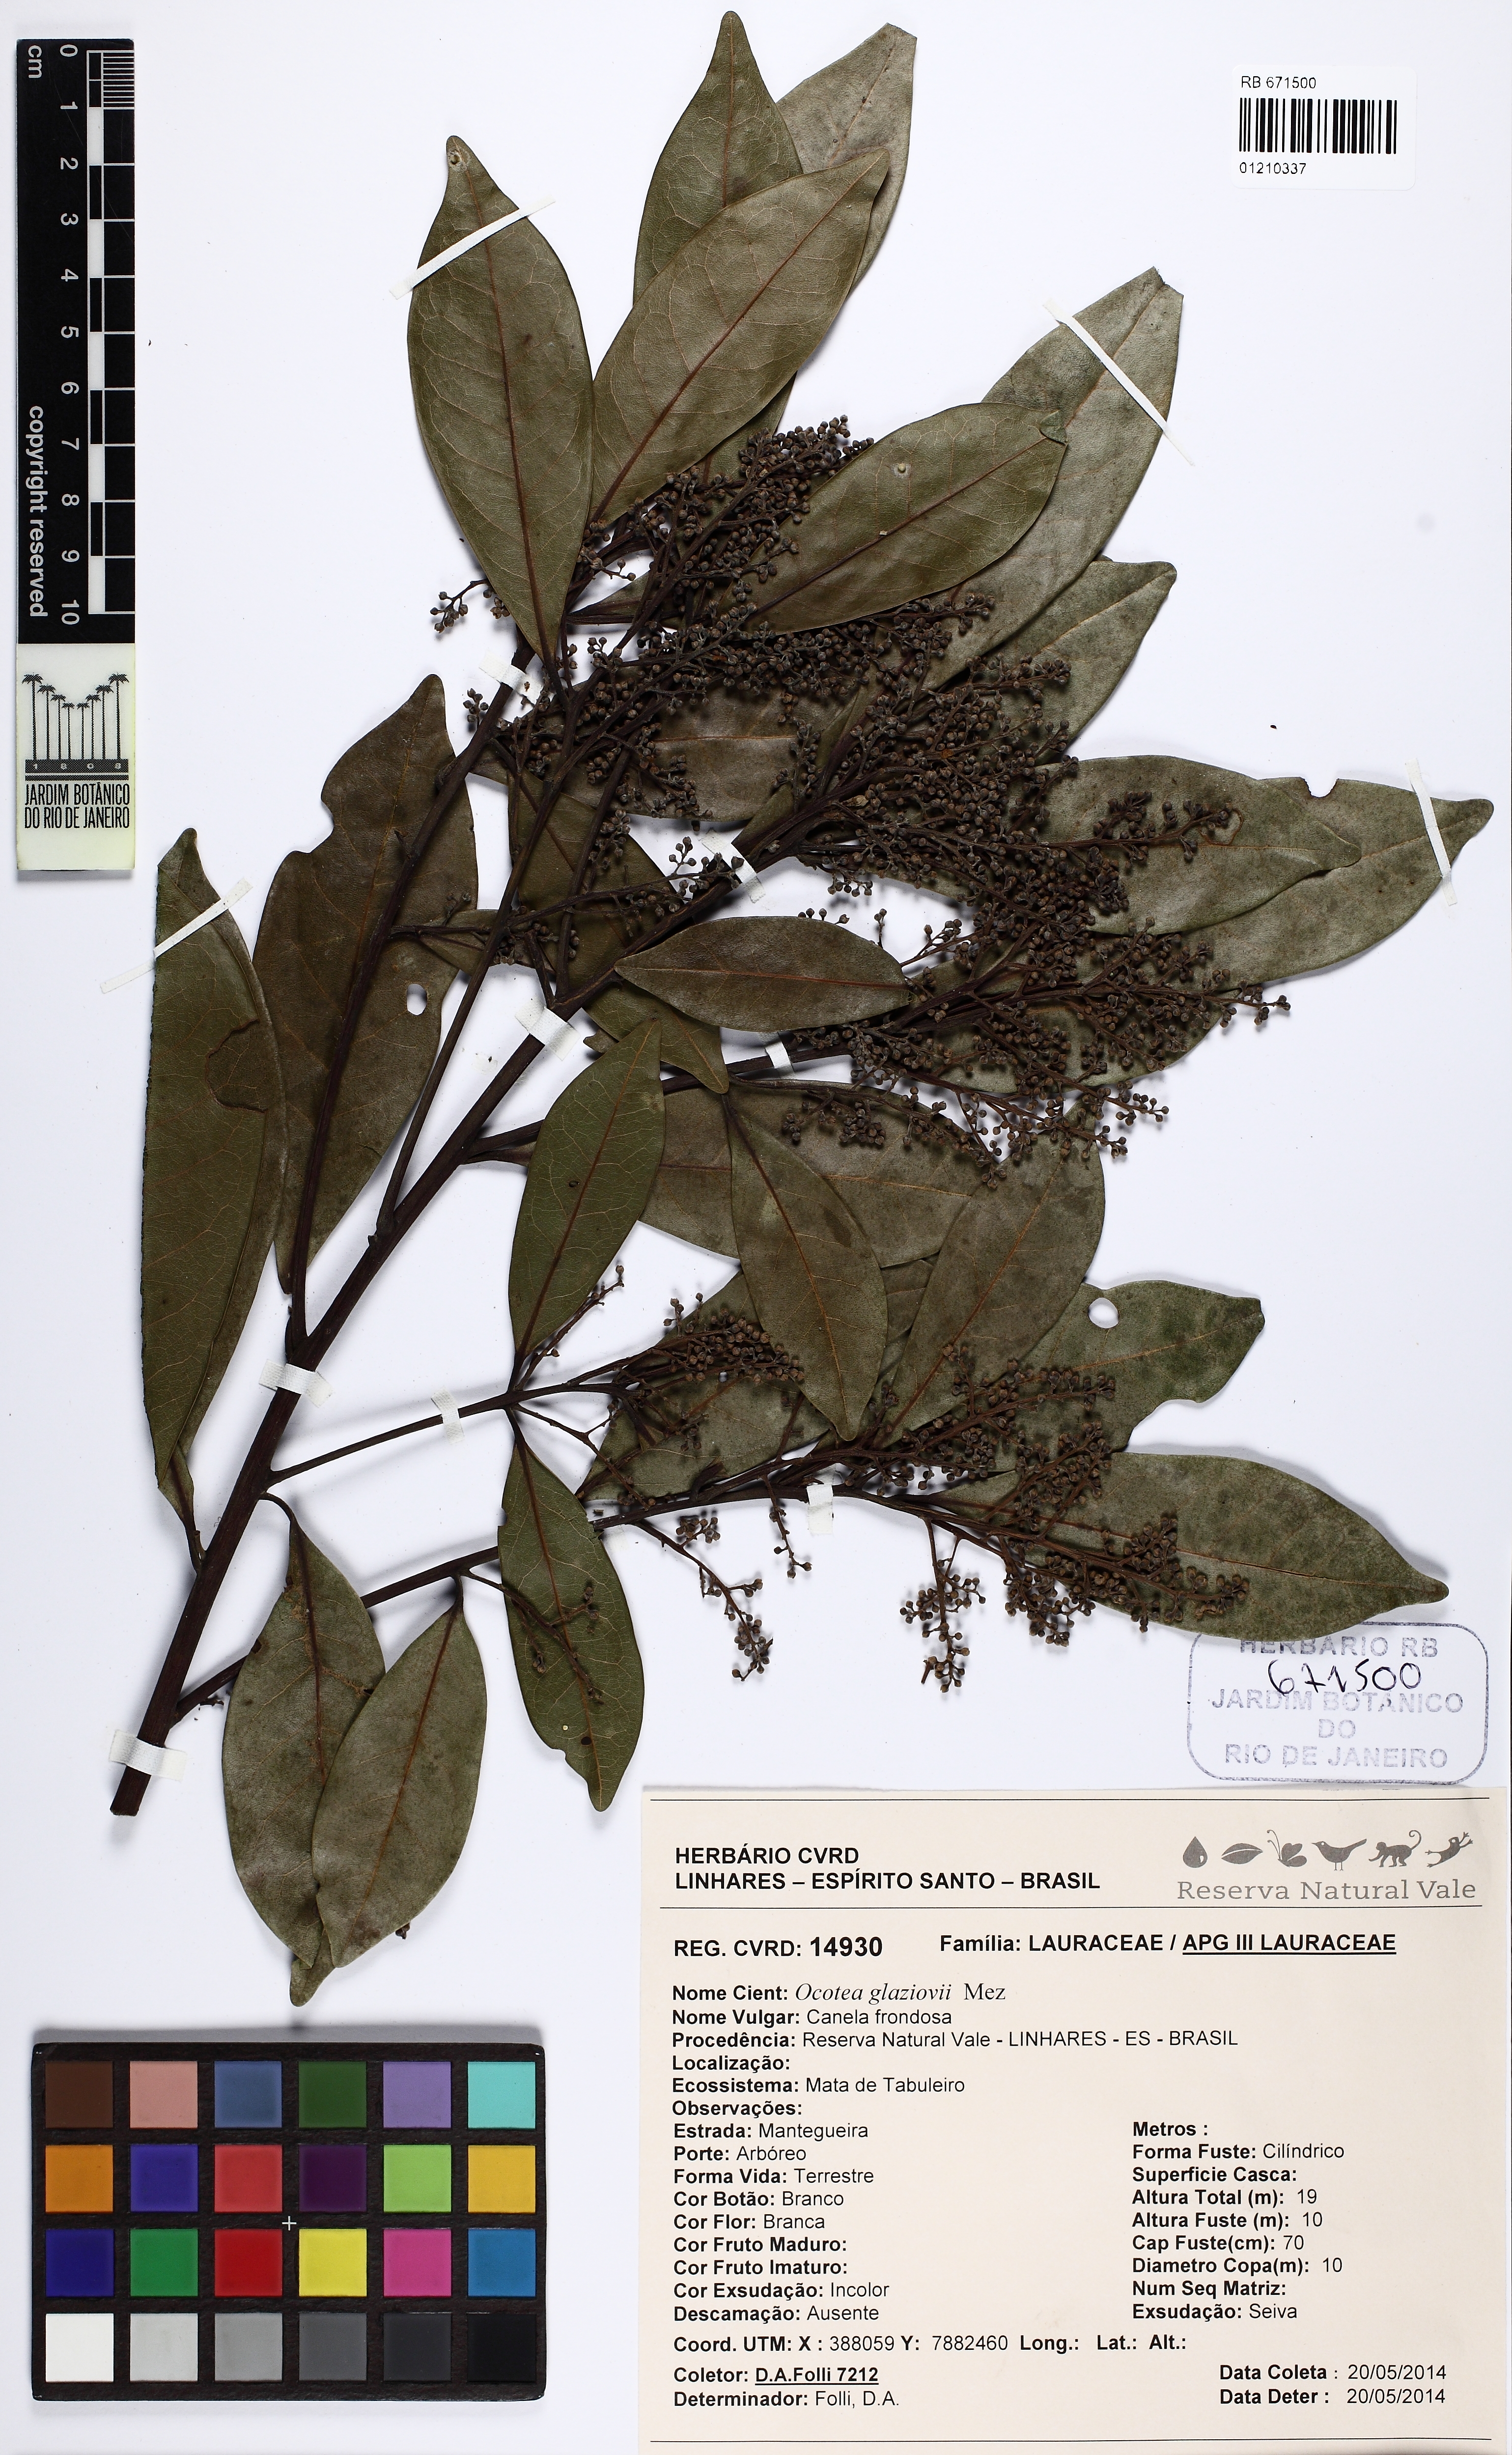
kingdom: Plantae
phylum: Tracheophyta
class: Magnoliopsida
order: Laurales
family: Lauraceae
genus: Ocotea
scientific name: Ocotea glaziovii
